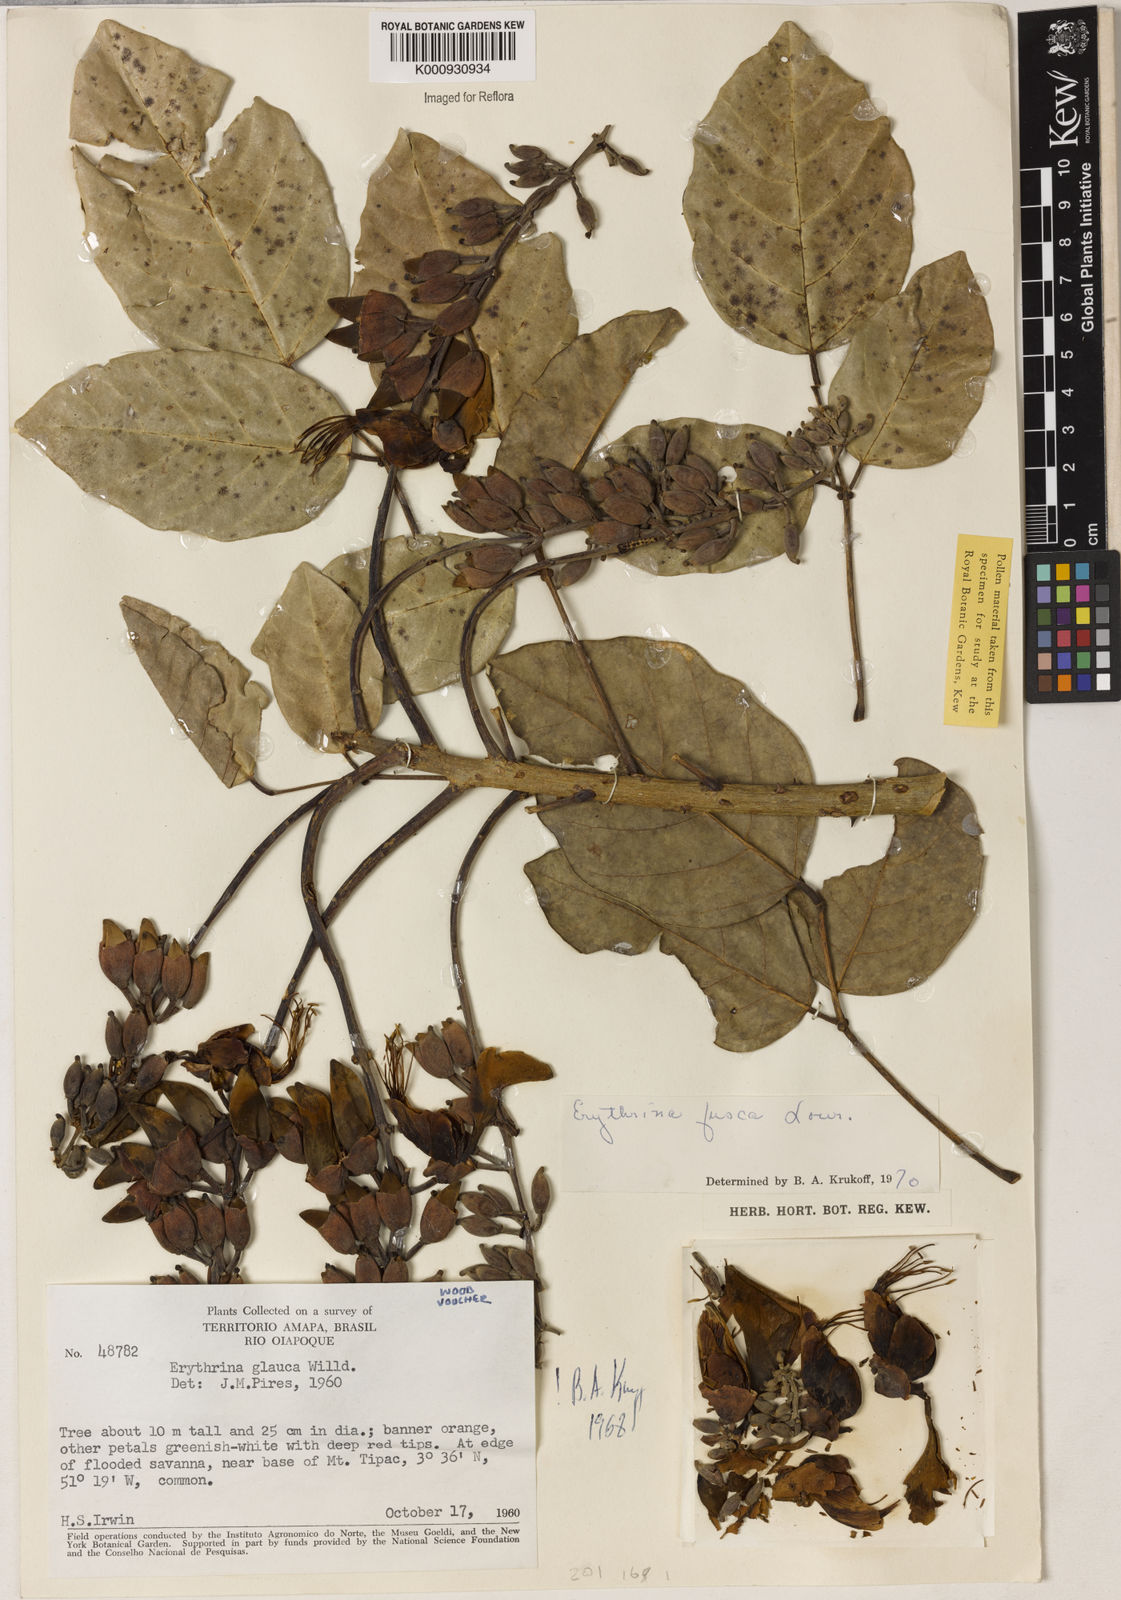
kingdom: Plantae
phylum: Tracheophyta
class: Magnoliopsida
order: Fabales
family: Fabaceae
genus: Erythrina
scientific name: Erythrina fusca
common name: Coral-bean
